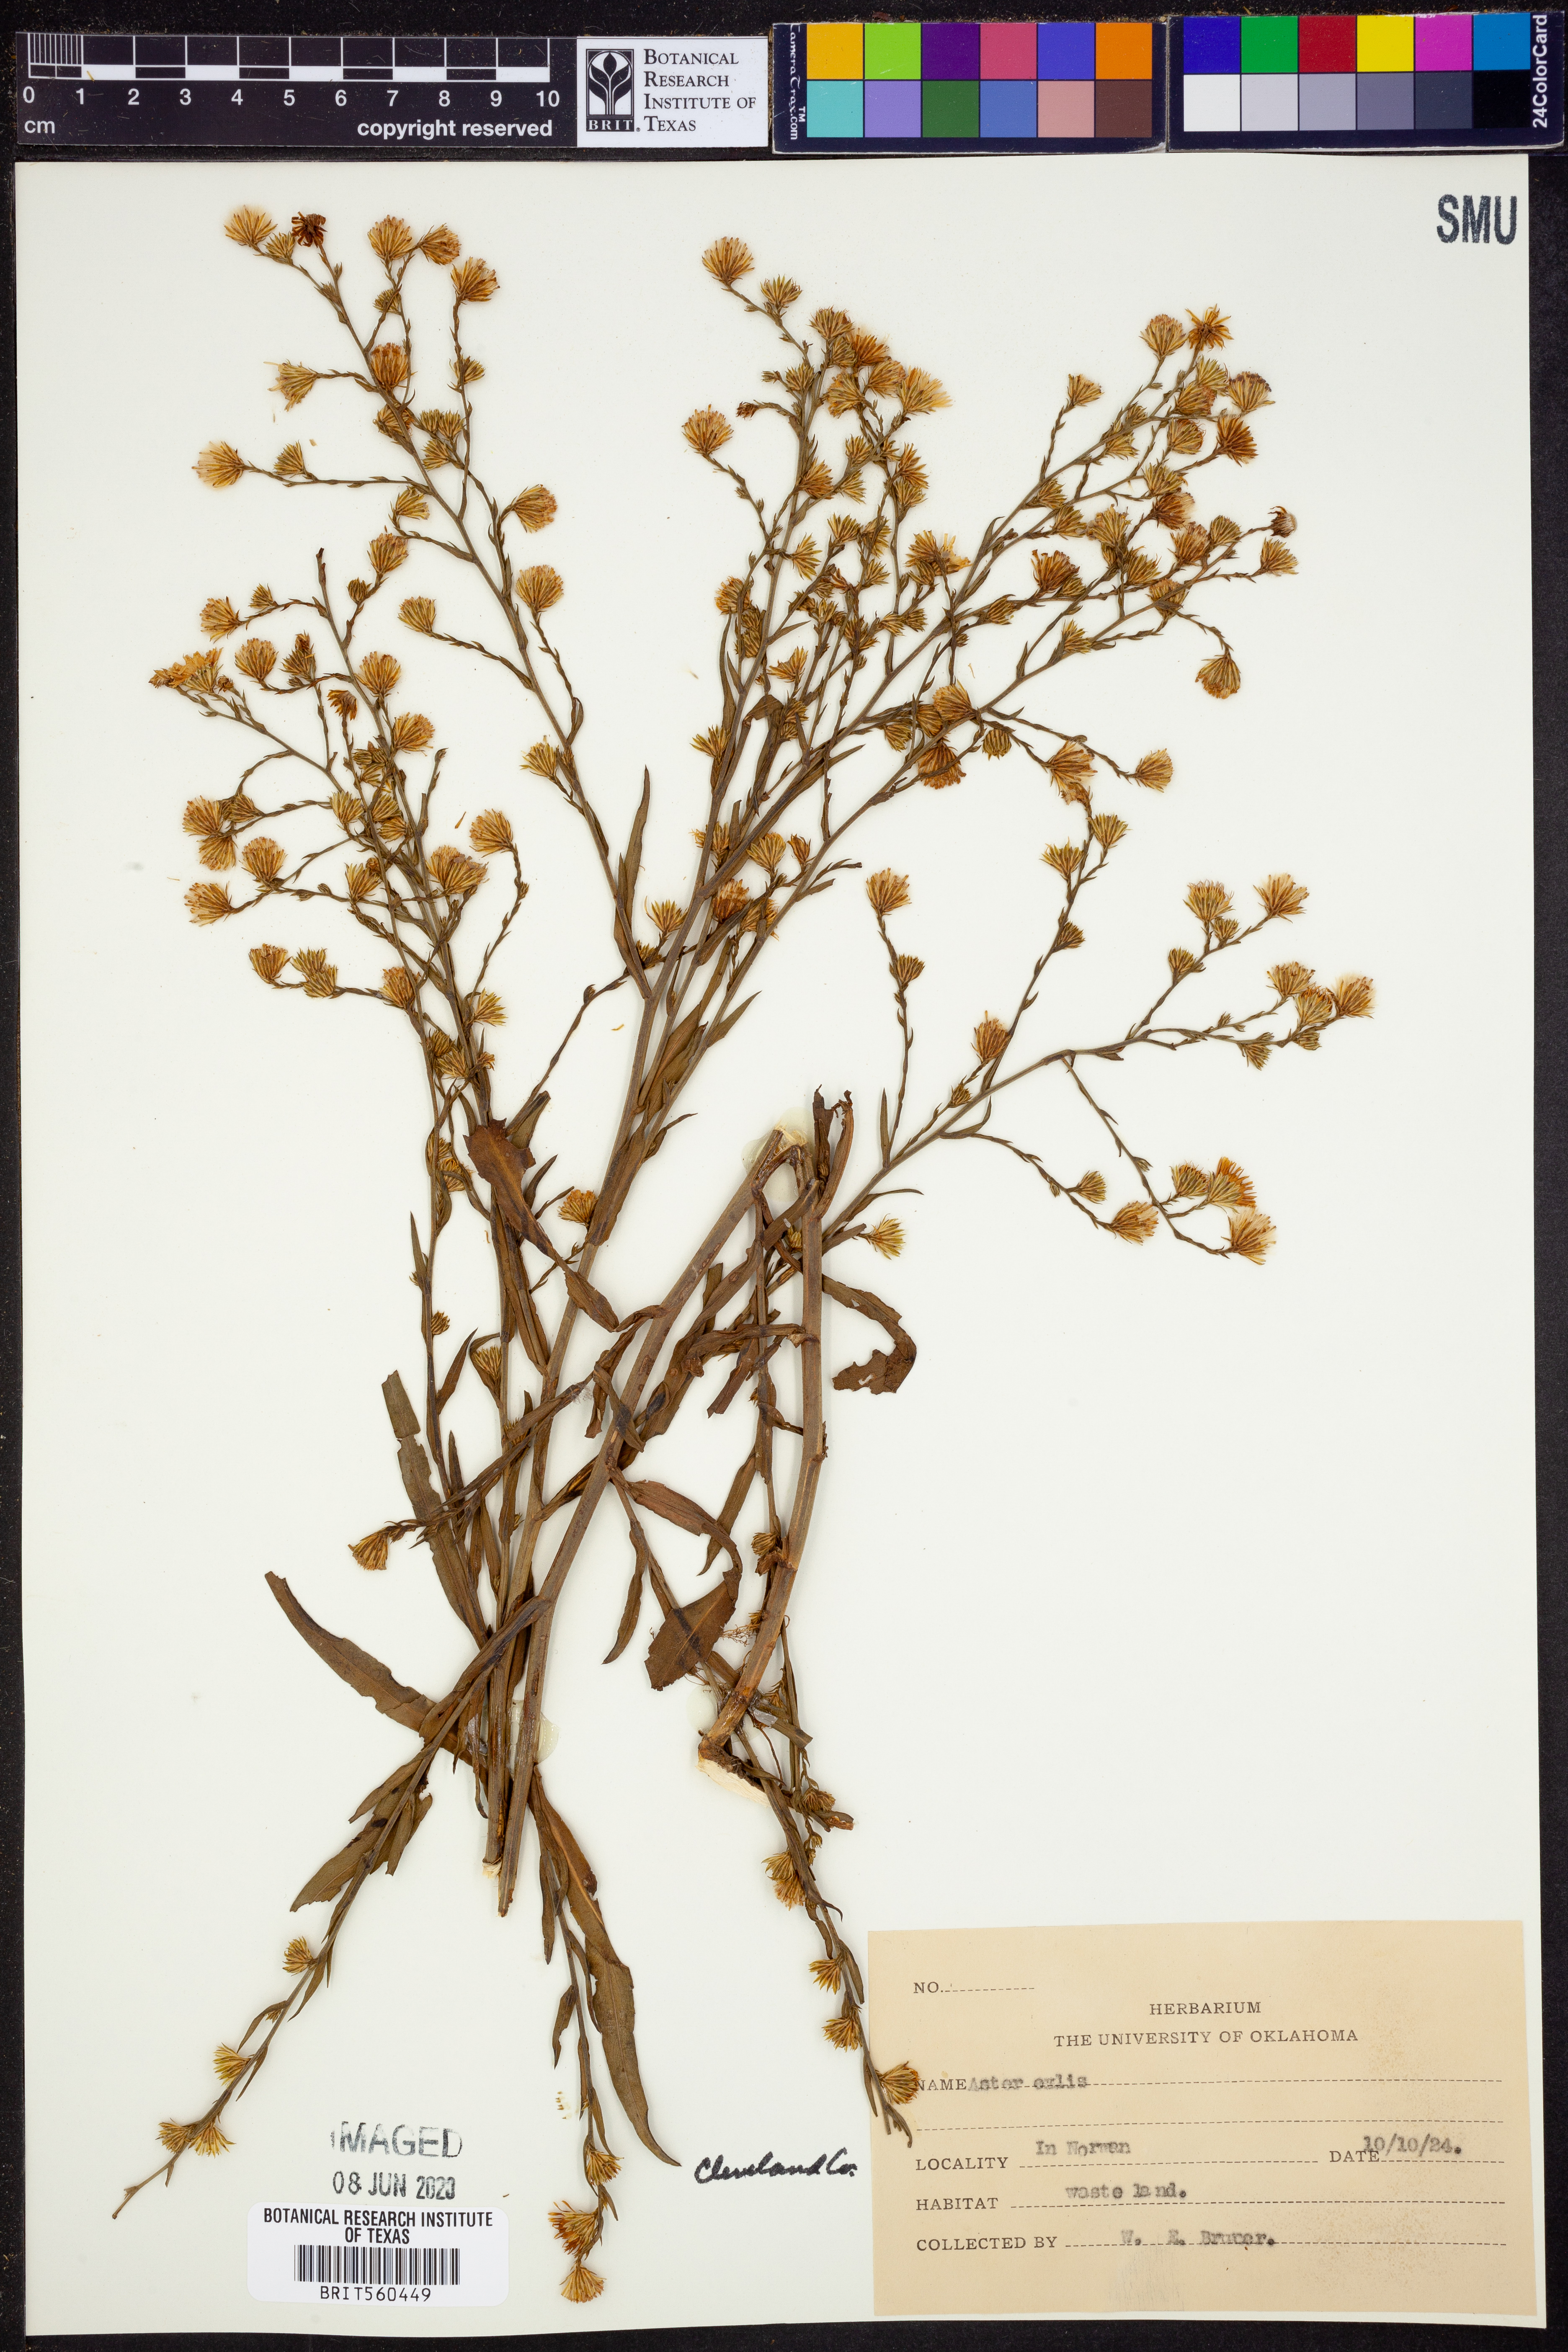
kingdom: Plantae
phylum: Tracheophyta
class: Magnoliopsida
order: Asterales
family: Asteraceae
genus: Symphyotrichum
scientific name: Symphyotrichum expansum
